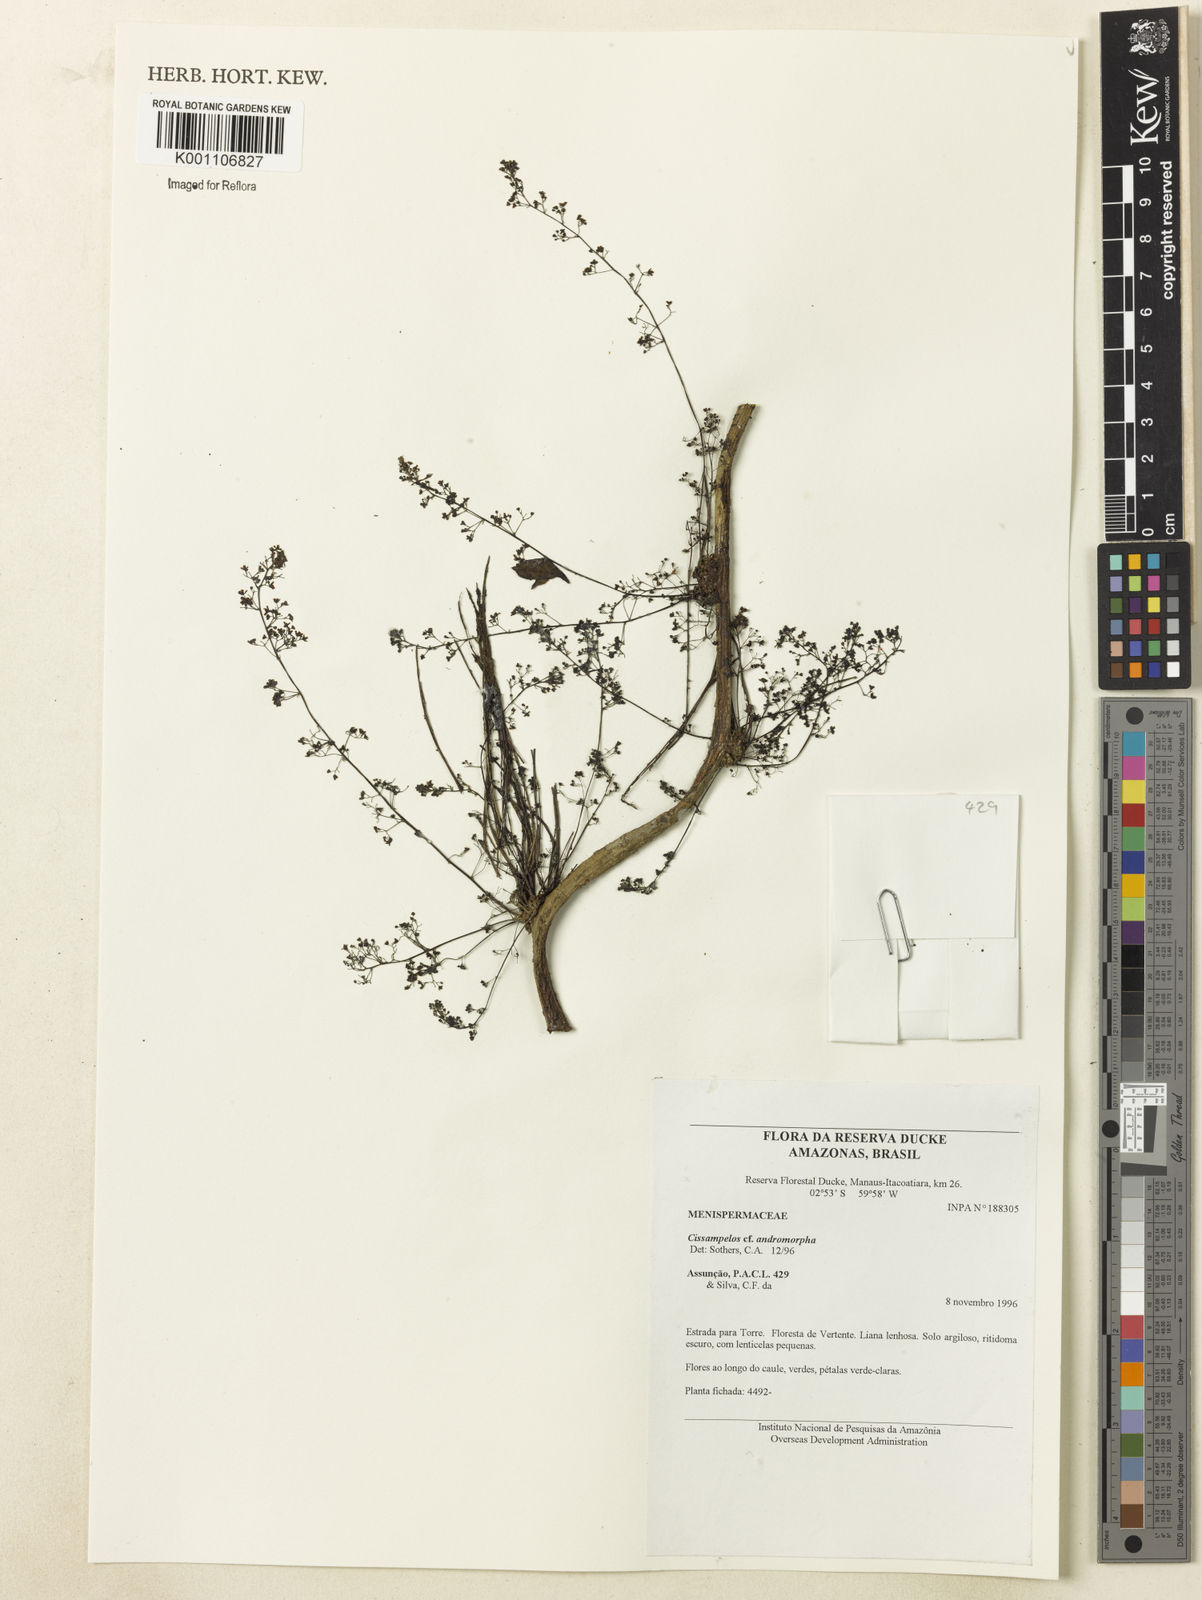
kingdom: Plantae
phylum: Tracheophyta
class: Magnoliopsida
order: Ranunculales
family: Menispermaceae
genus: Cissampelos
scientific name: Cissampelos andromorpha
